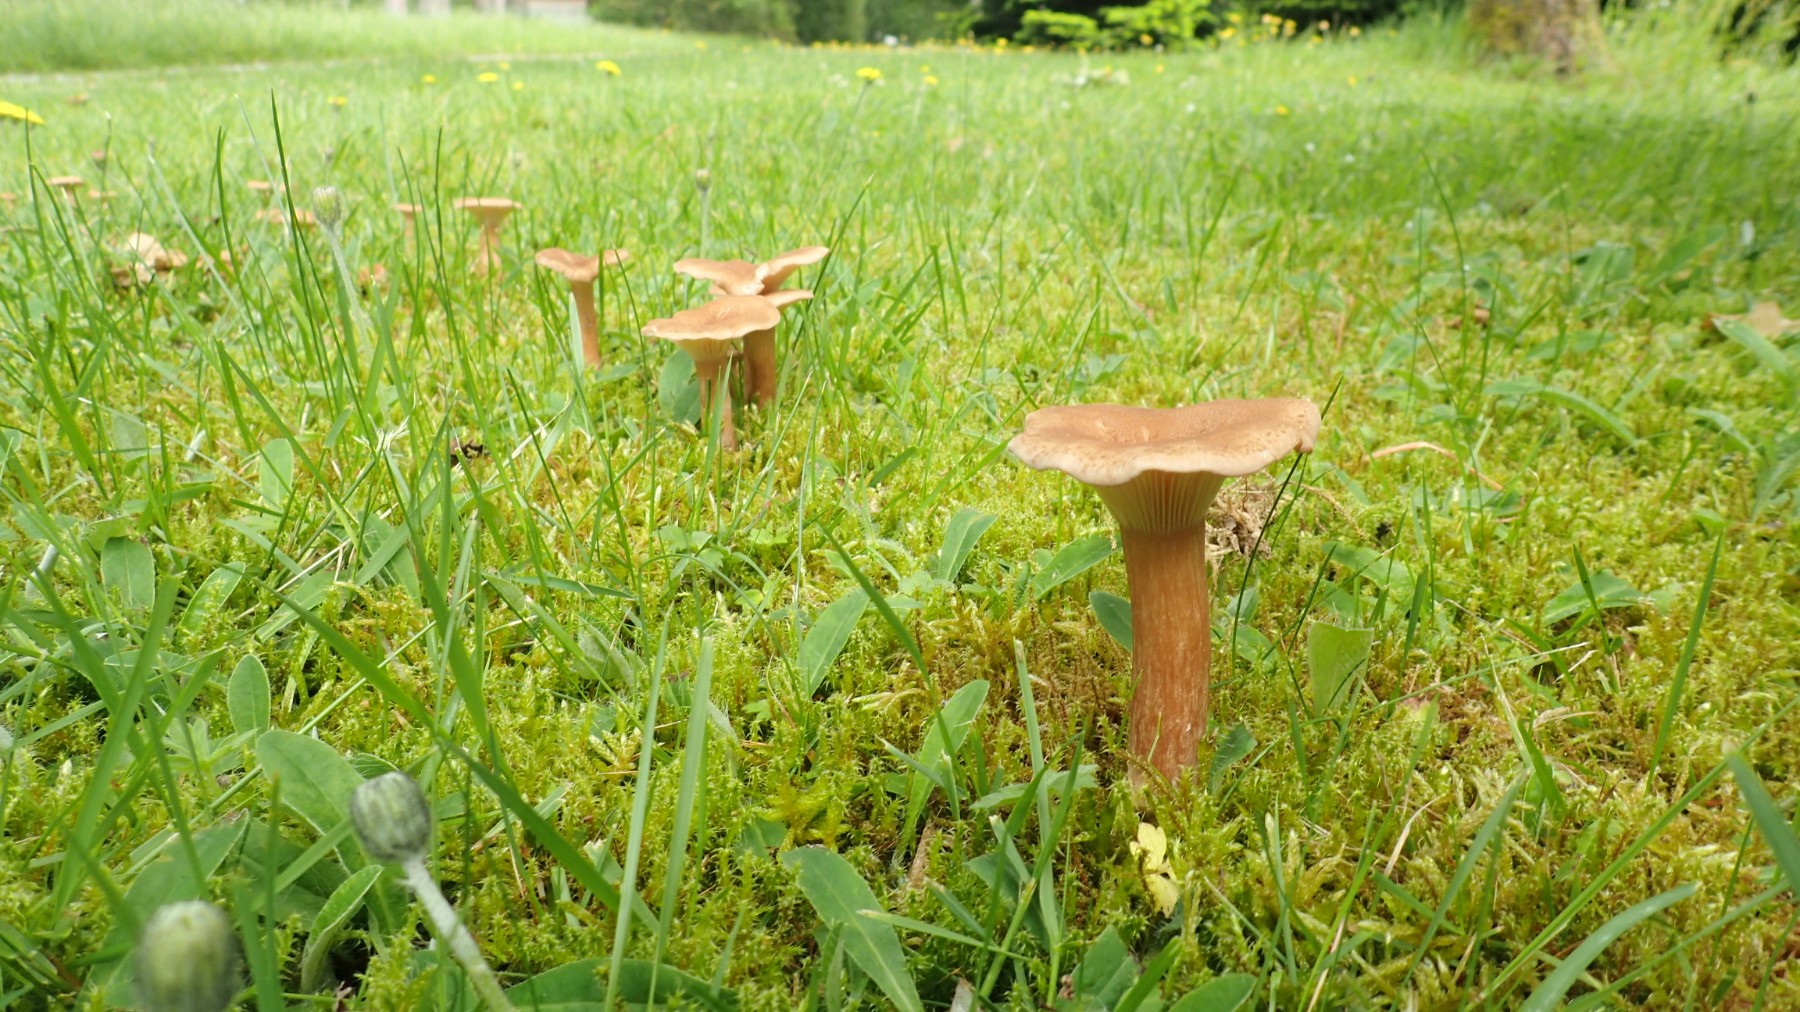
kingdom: Fungi
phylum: Basidiomycota
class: Agaricomycetes
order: Agaricales
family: Tricholomataceae
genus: Infundibulicybe
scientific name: Infundibulicybe squamulosa
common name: småskællet tragthat
